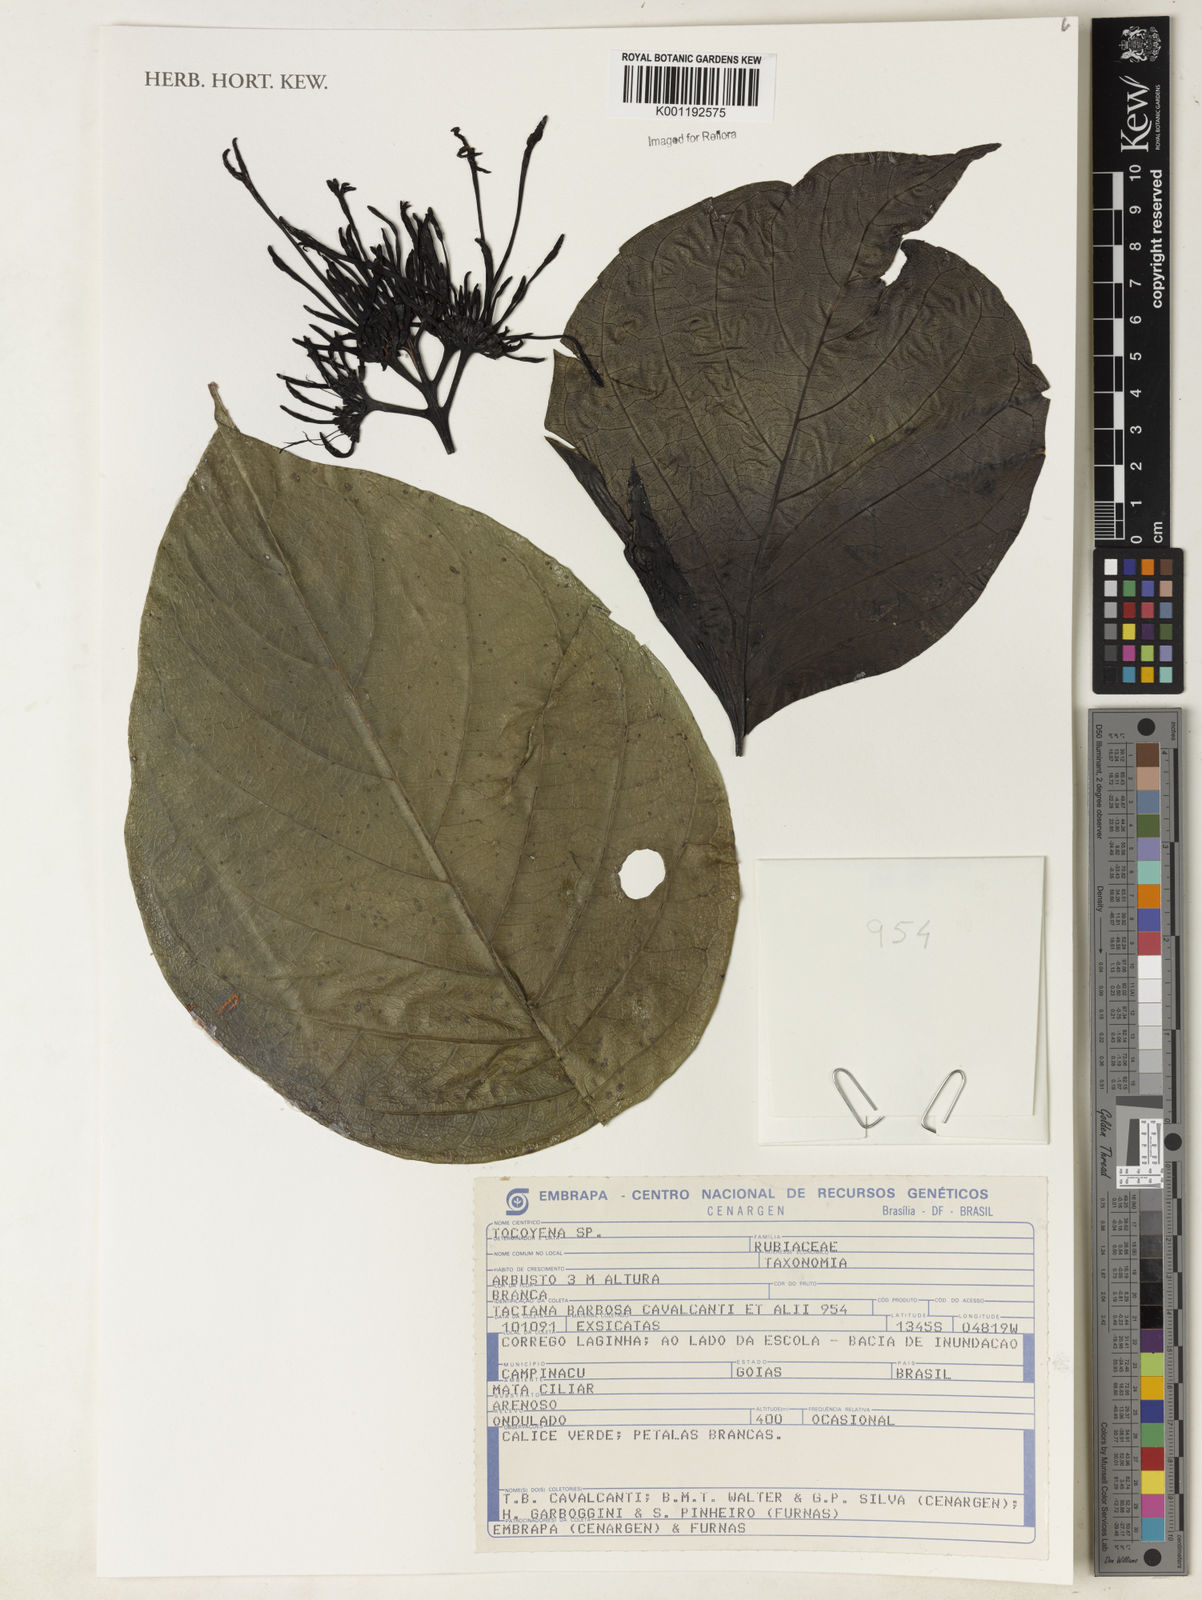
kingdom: Plantae
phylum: Tracheophyta
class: Magnoliopsida
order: Gentianales
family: Rubiaceae
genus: Rudgea
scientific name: Rudgea
